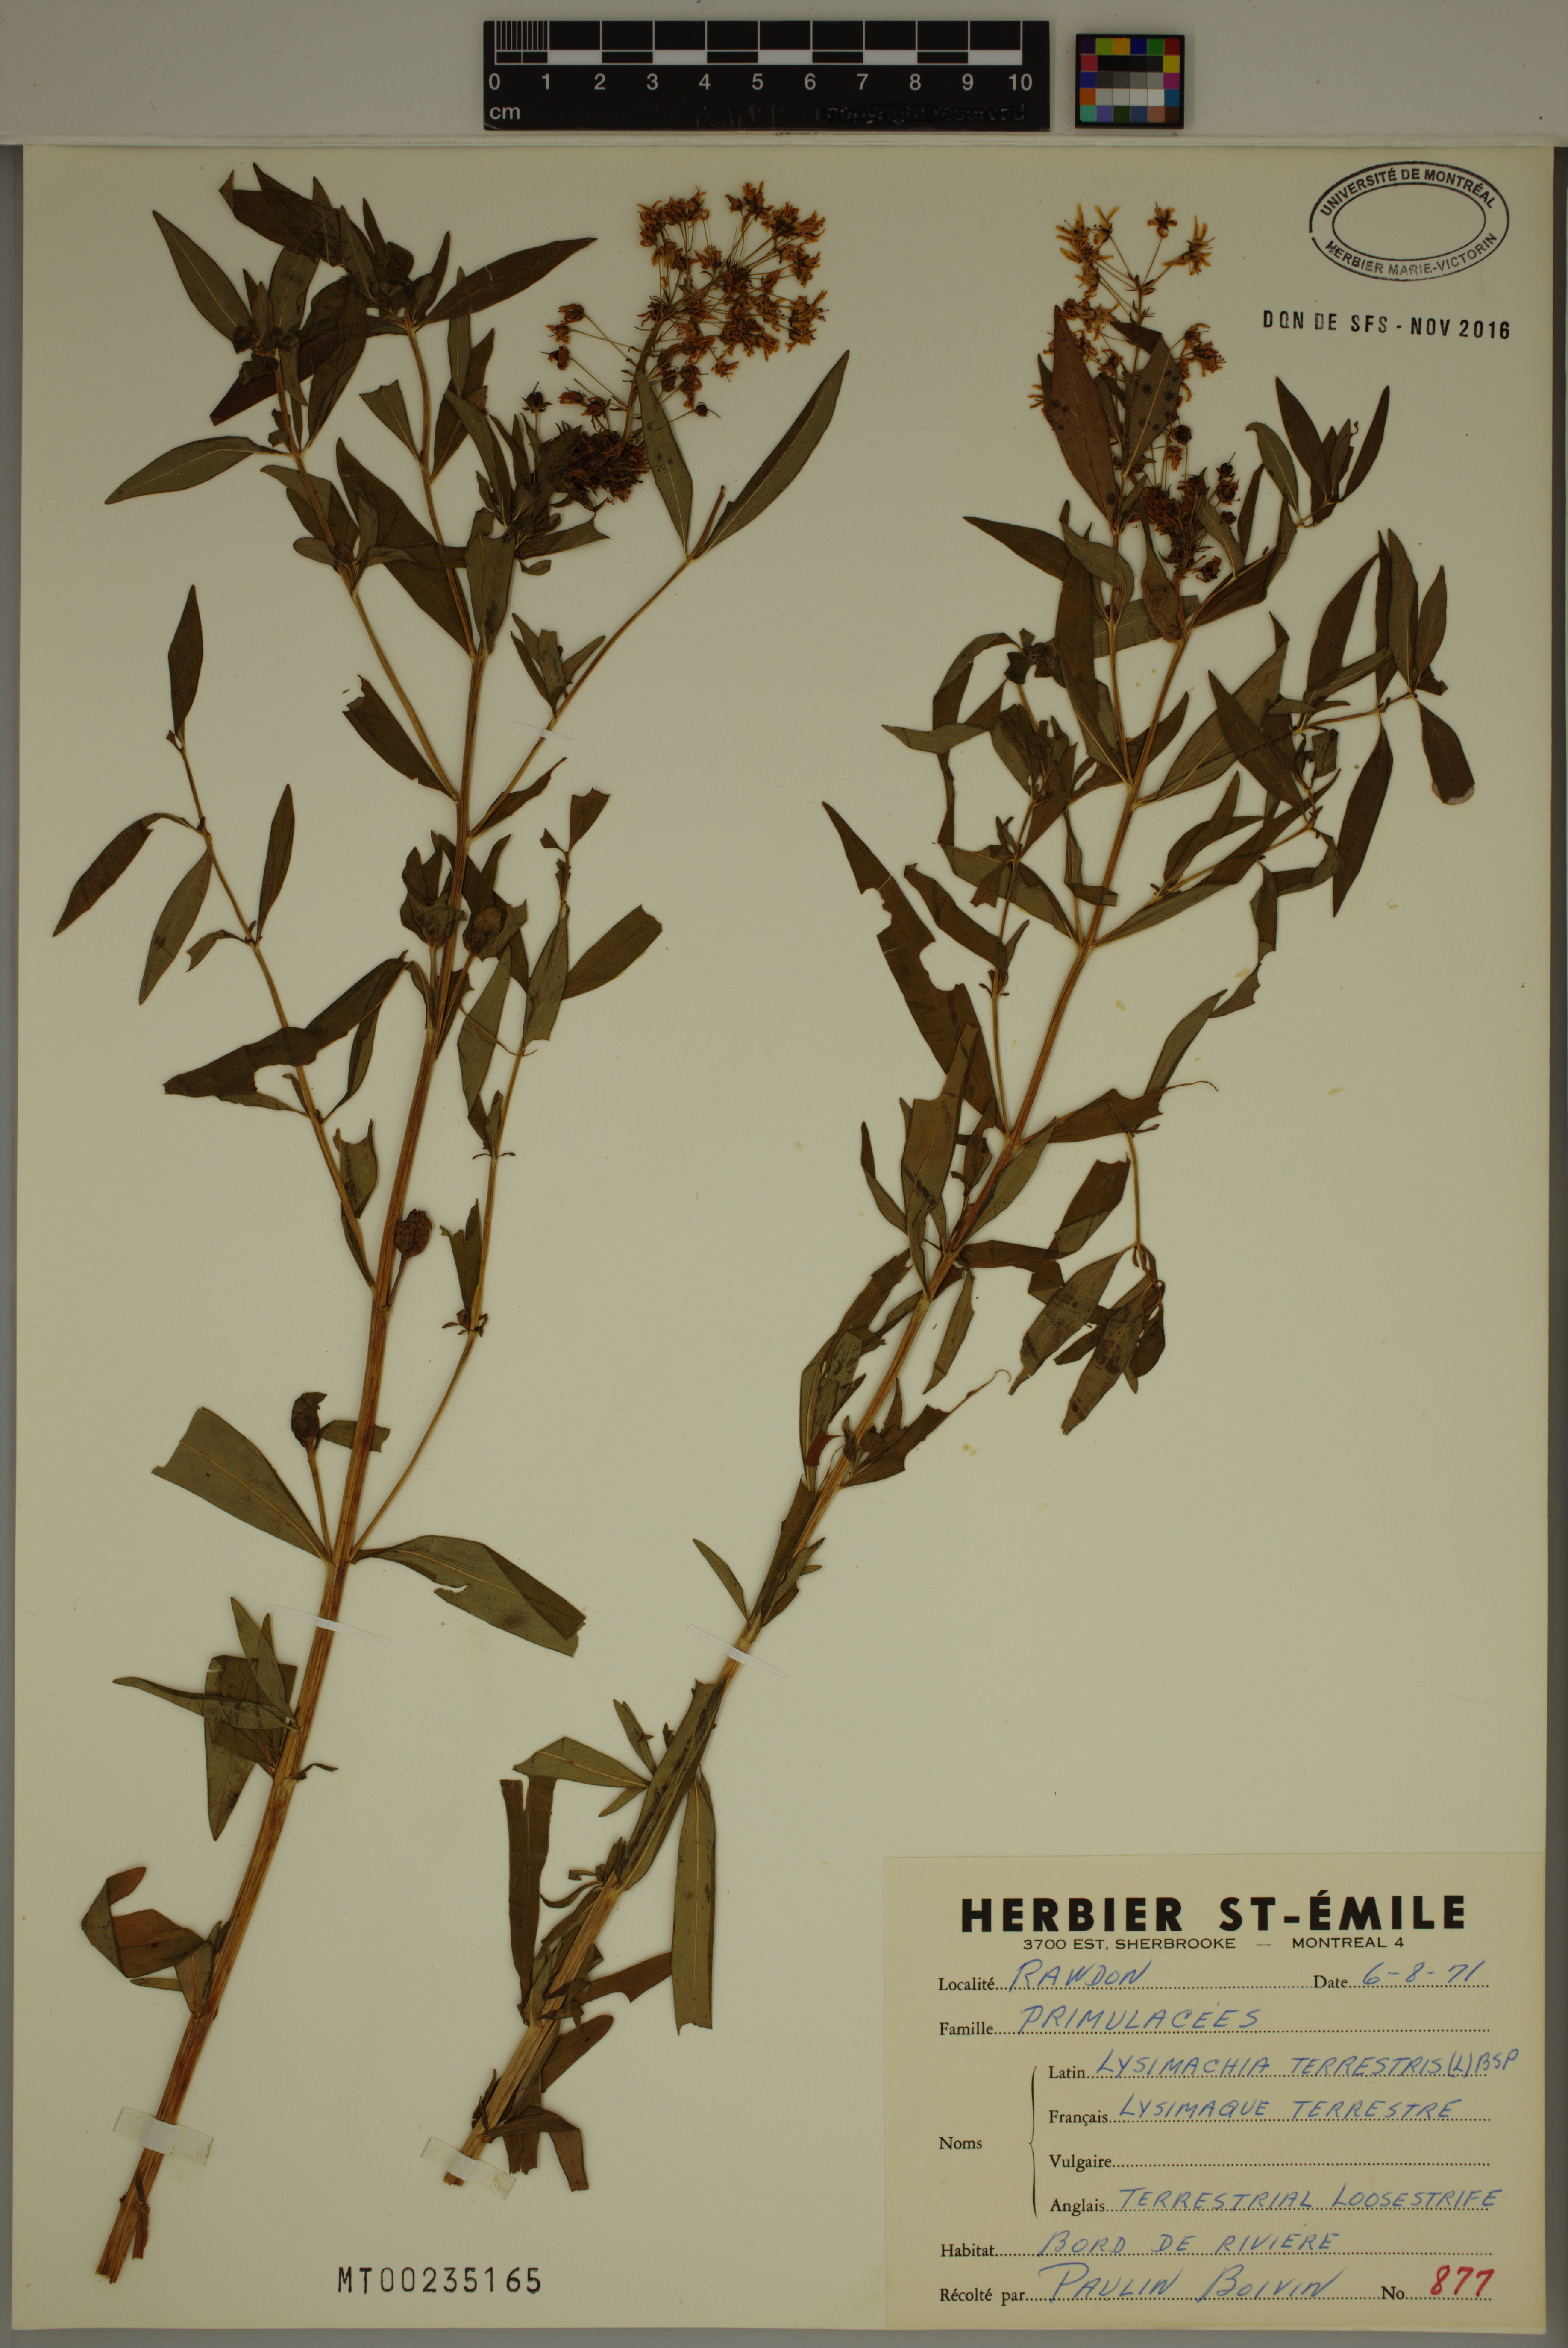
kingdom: Plantae
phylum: Tracheophyta
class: Magnoliopsida
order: Ericales
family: Primulaceae
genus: Lysimachia
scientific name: Lysimachia terrestris
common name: Lake loosestrife
